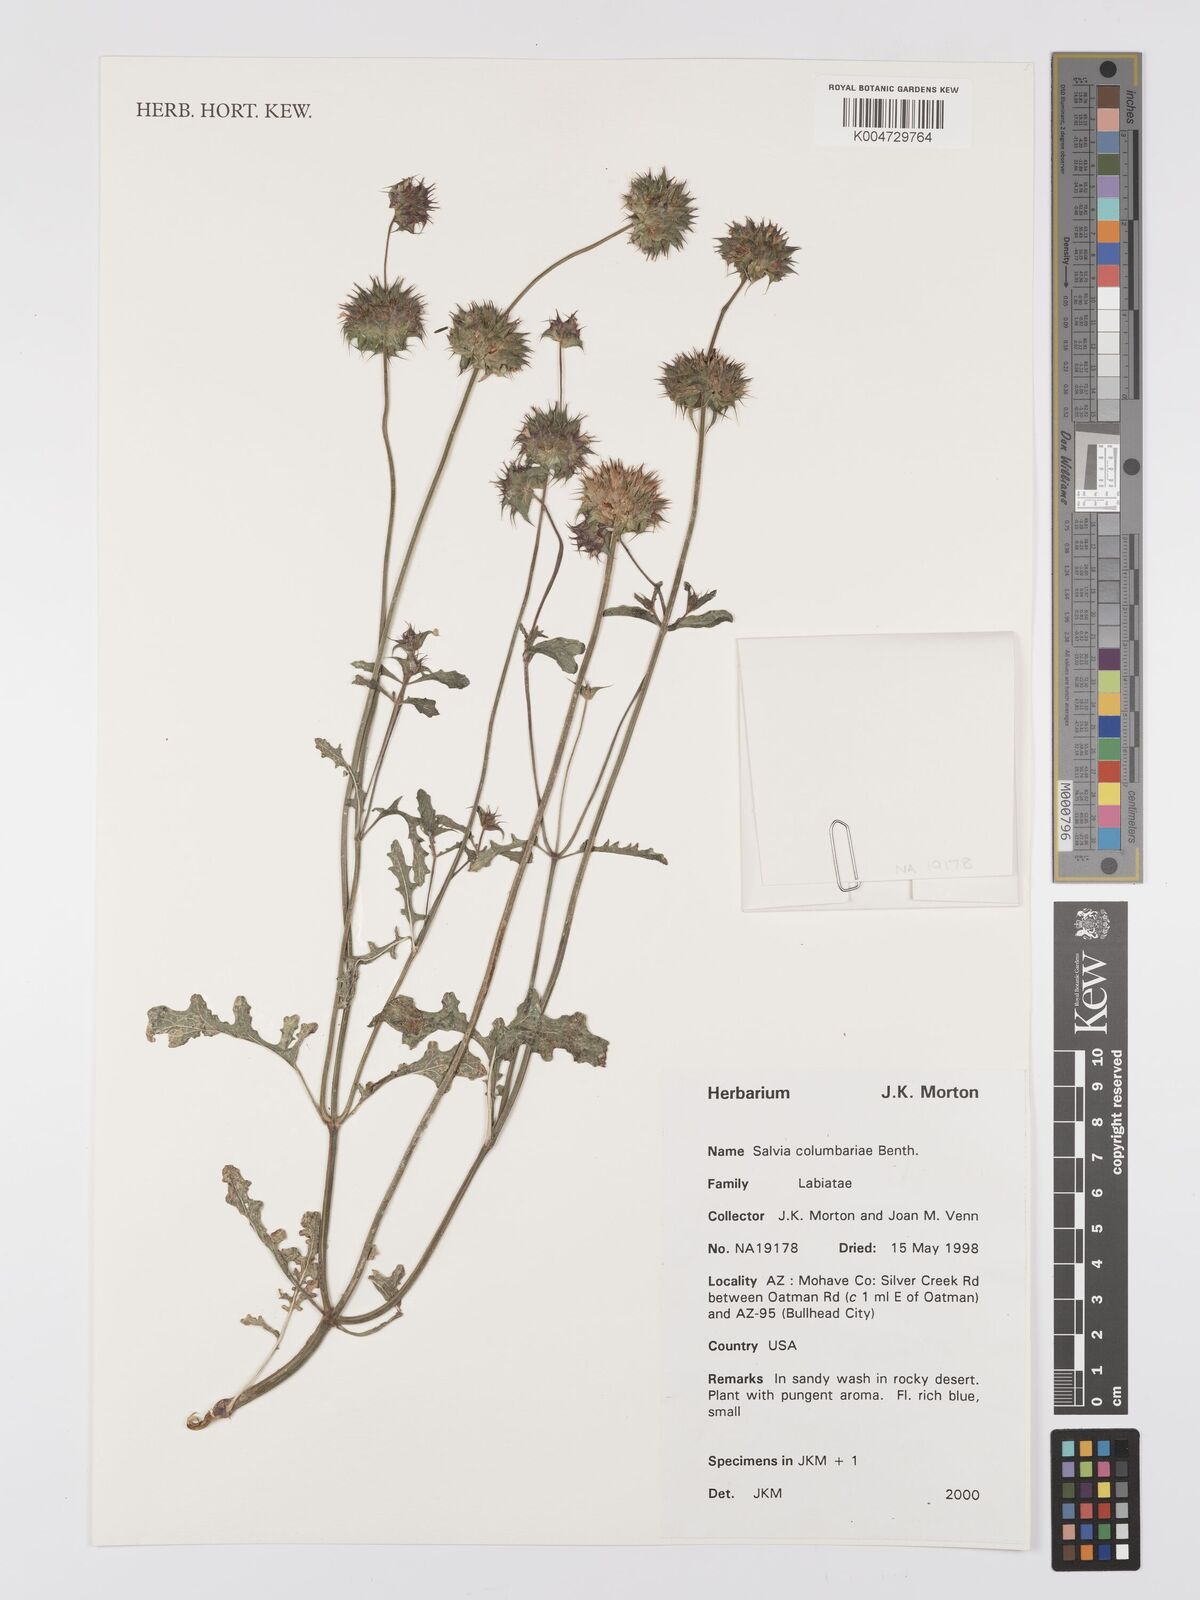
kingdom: Plantae
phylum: Tracheophyta
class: Magnoliopsida
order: Lamiales
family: Lamiaceae
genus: Salvia
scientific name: Salvia columbariae
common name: Chia
